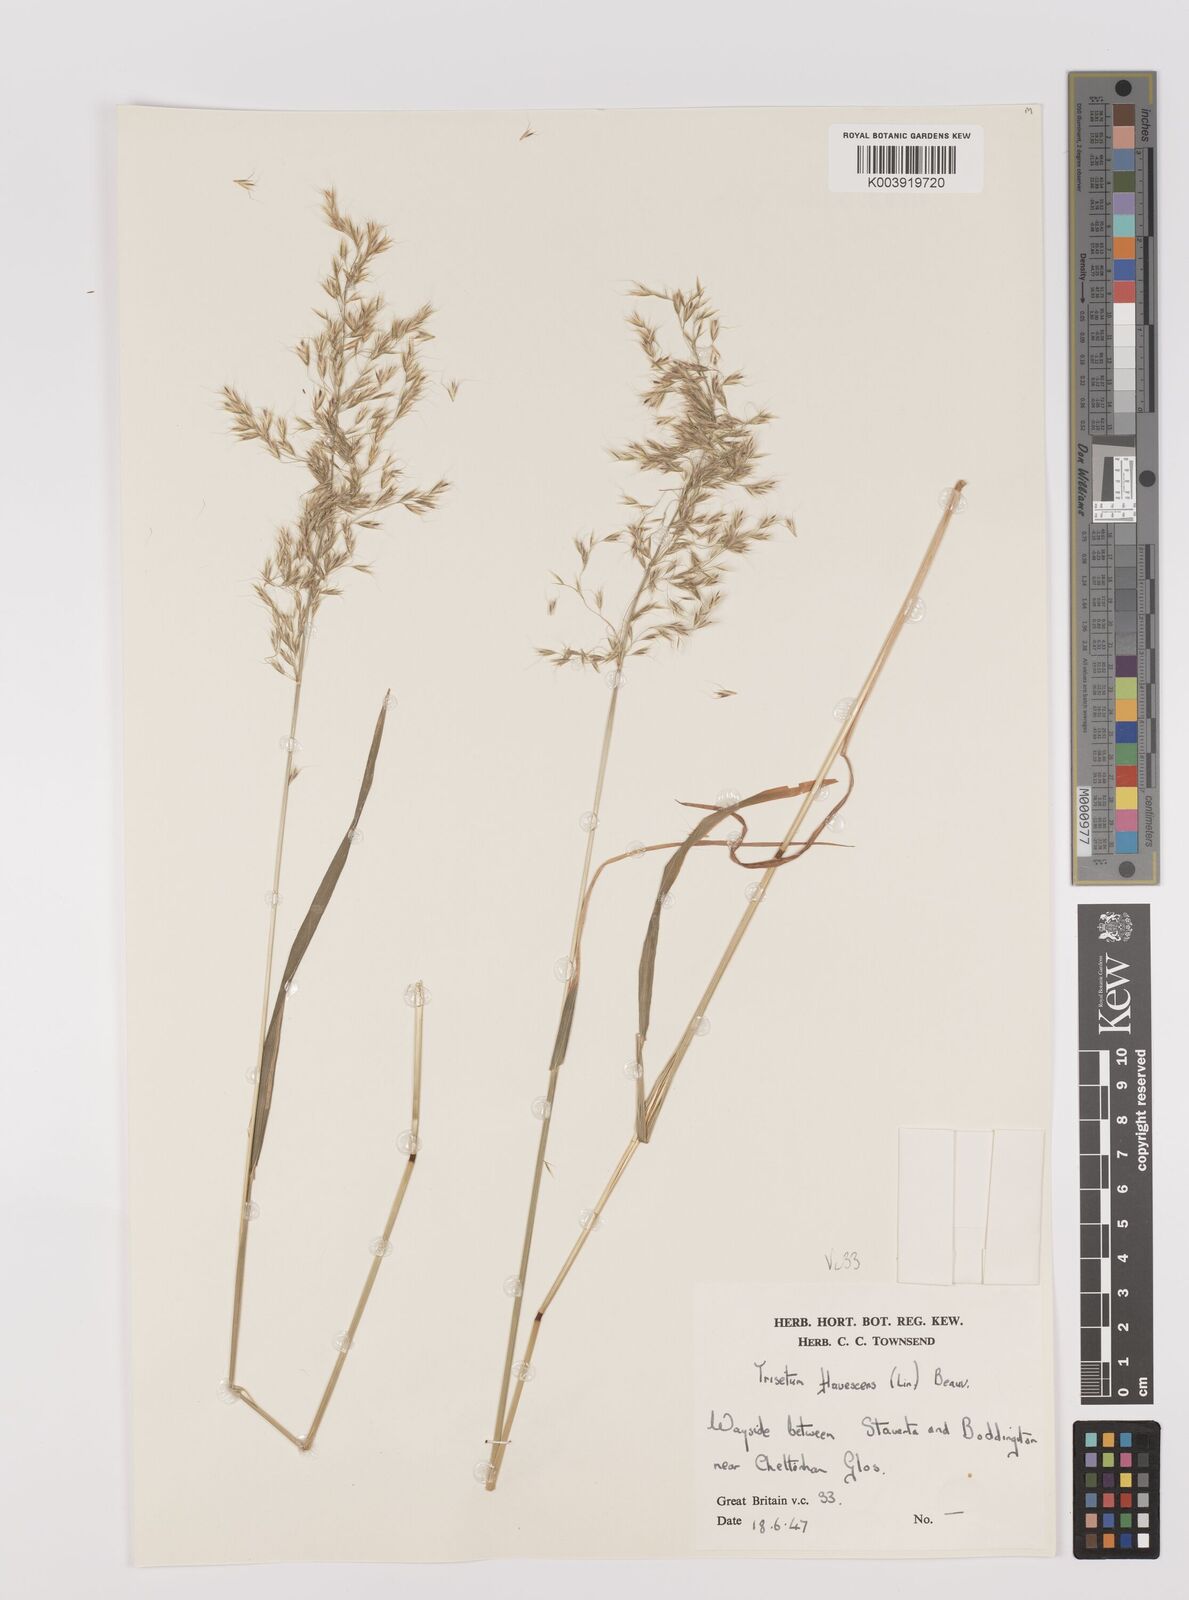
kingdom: Plantae
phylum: Tracheophyta
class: Liliopsida
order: Poales
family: Poaceae
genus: Trisetum
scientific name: Trisetum flavescens
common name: Yellow oat-grass
